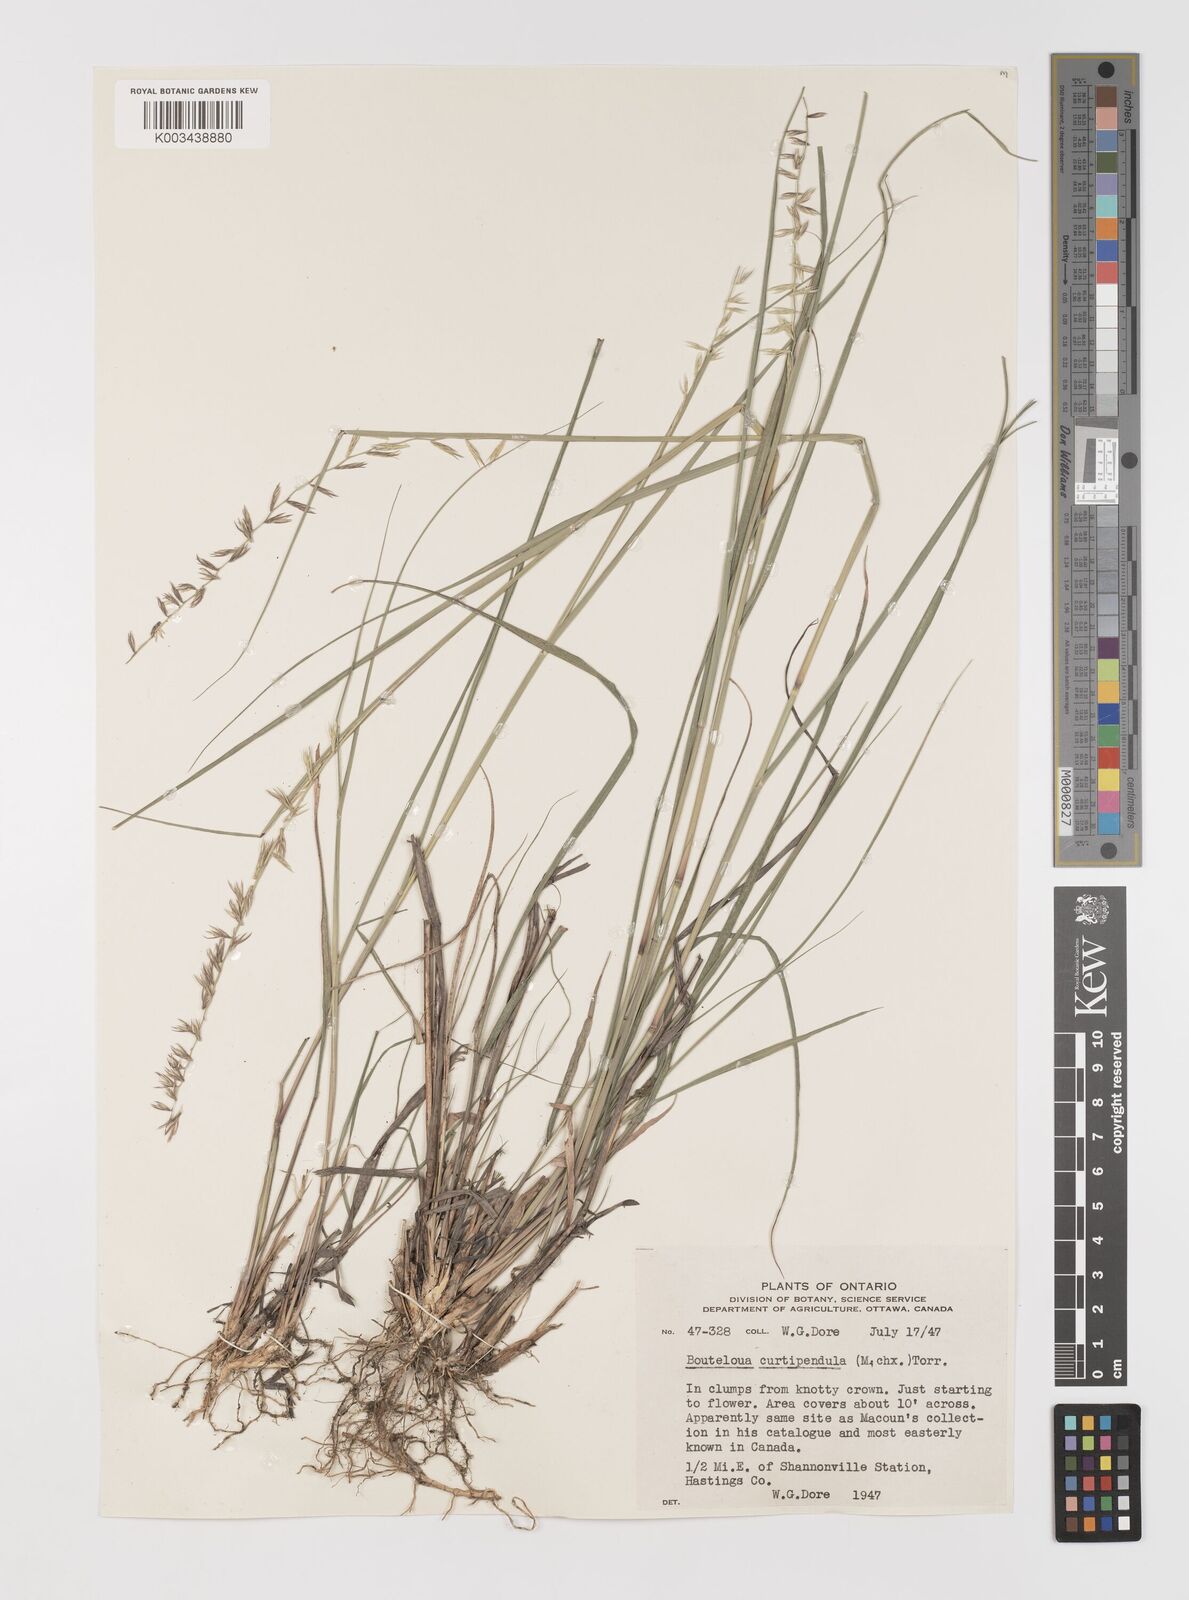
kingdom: Plantae
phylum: Tracheophyta
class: Liliopsida
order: Poales
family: Poaceae
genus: Bouteloua
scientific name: Bouteloua curtipendula
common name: Side-oats grama
